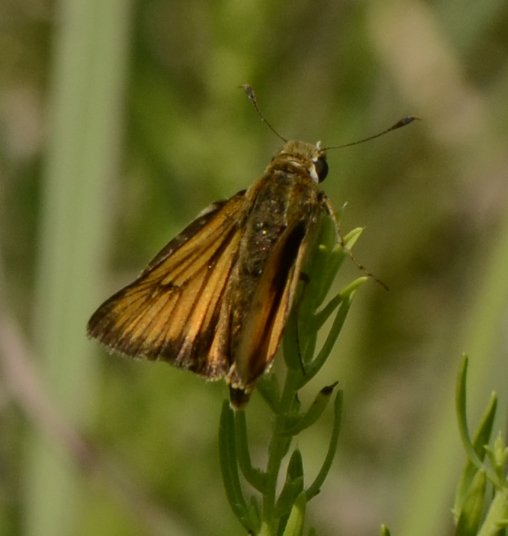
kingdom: Animalia
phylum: Arthropoda
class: Insecta
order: Lepidoptera
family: Hesperiidae
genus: Atrytone
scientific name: Atrytone delaware
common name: Delaware Skipper
